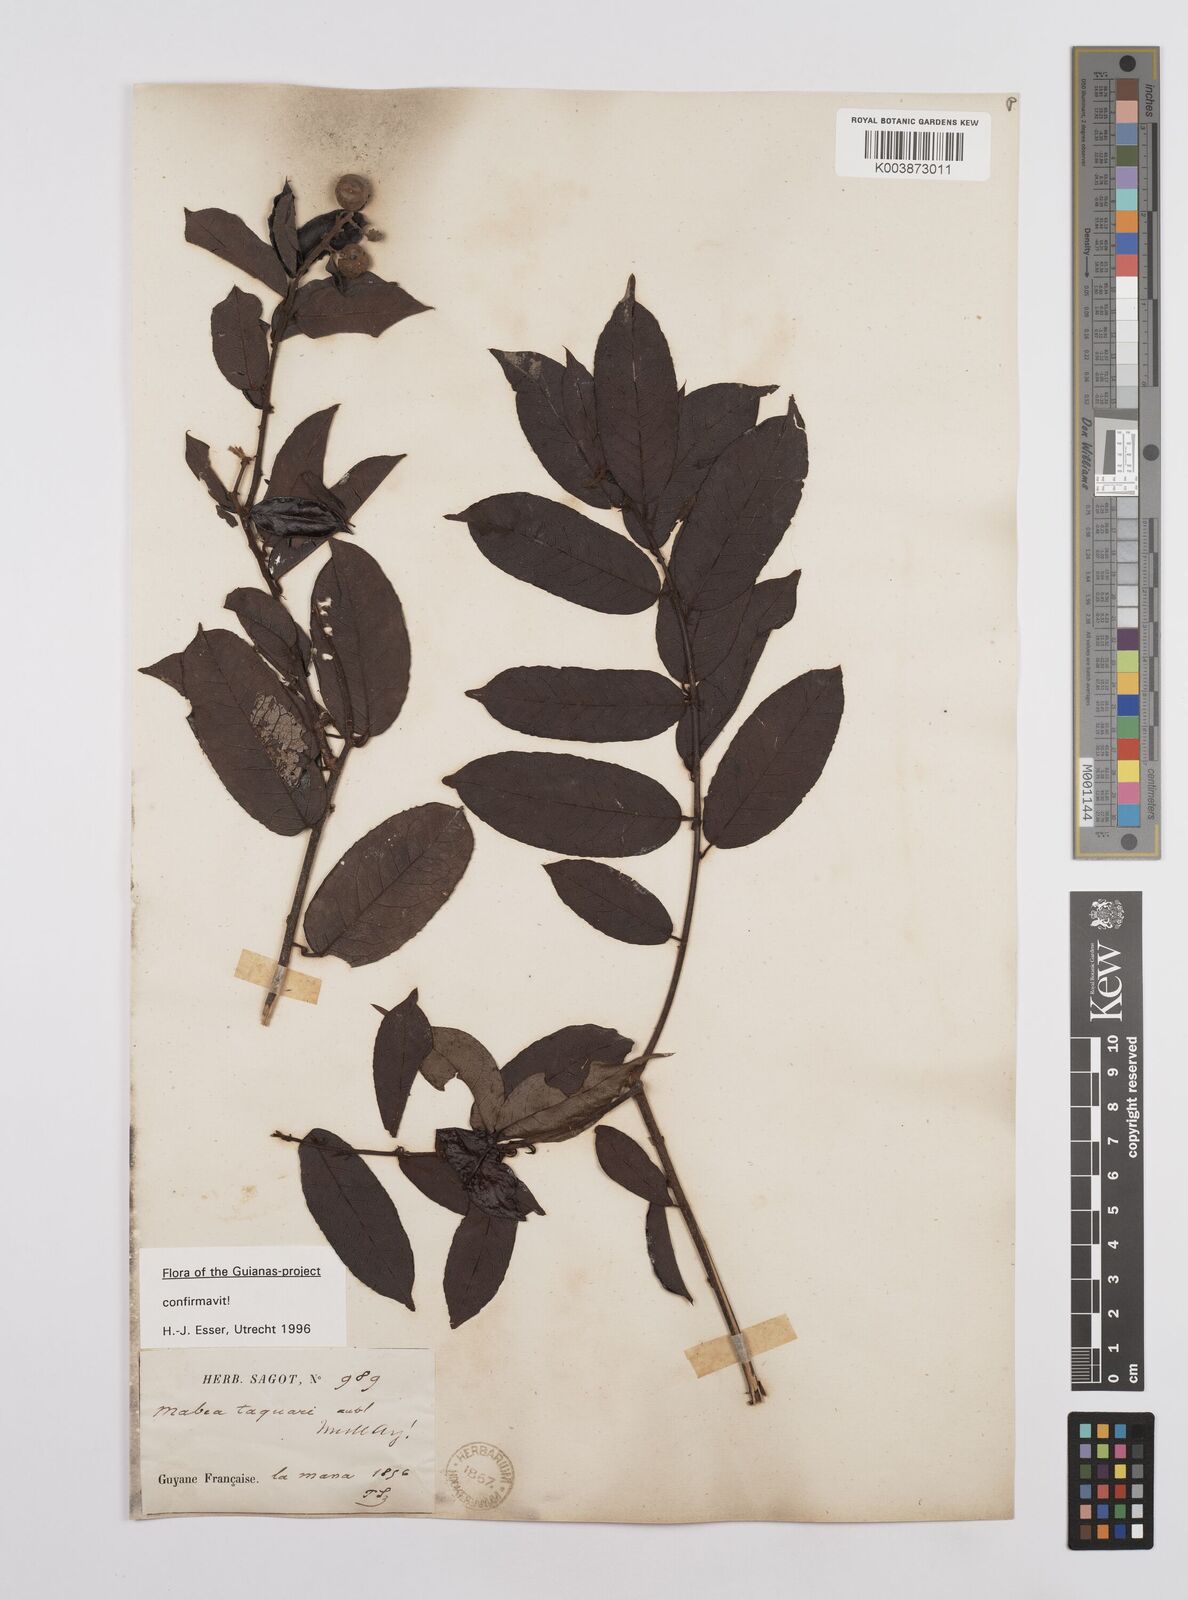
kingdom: Plantae
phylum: Tracheophyta
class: Magnoliopsida
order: Malpighiales
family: Euphorbiaceae
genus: Mabea
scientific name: Mabea taquari
